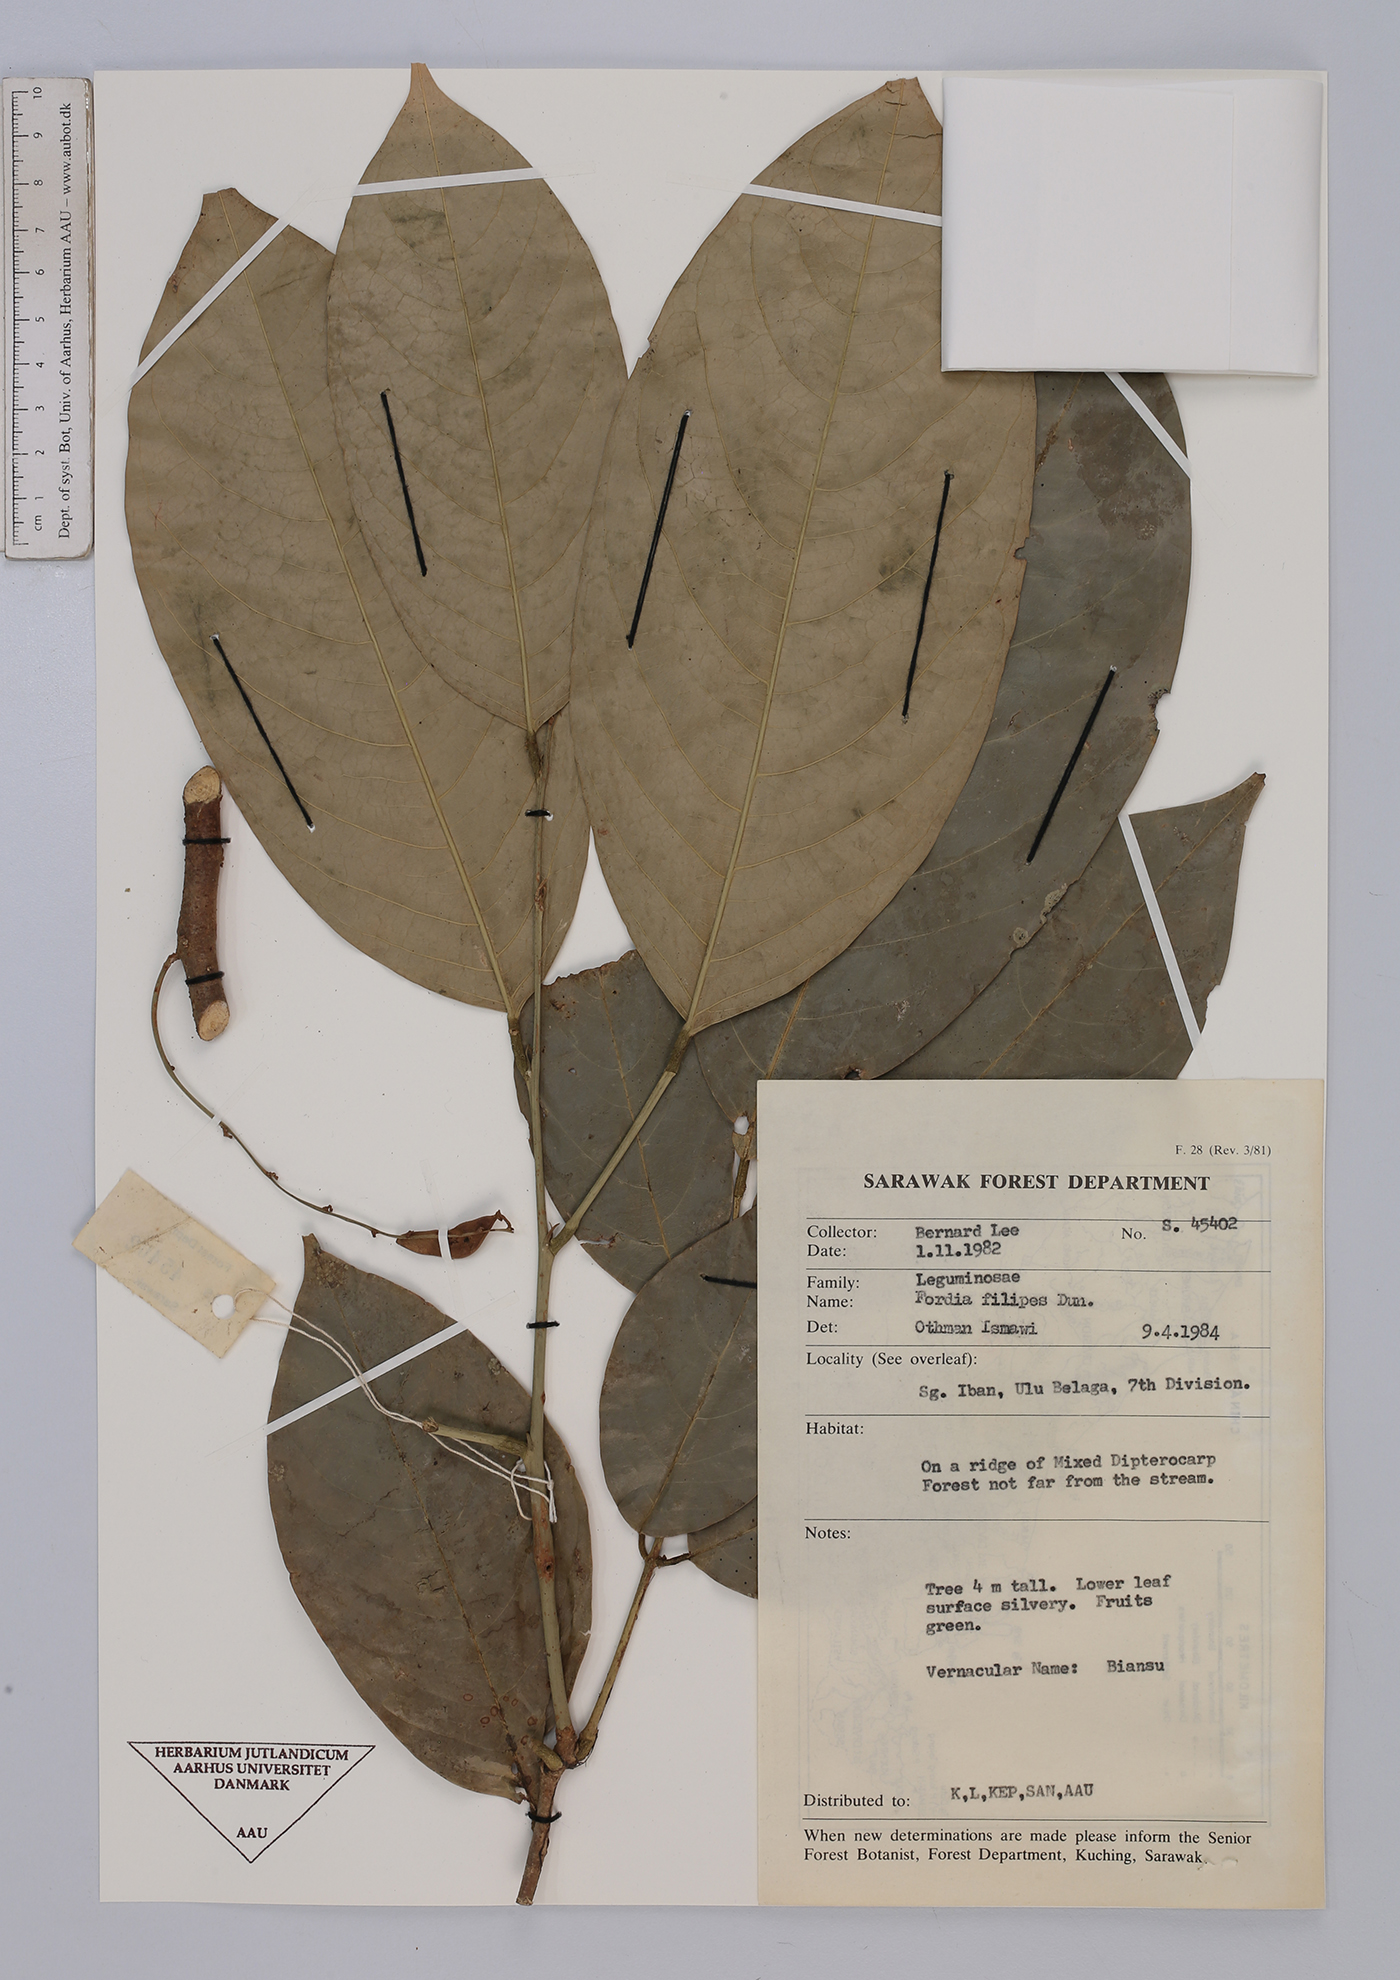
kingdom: Plantae
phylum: Tracheophyta
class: Magnoliopsida
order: Fabales
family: Fabaceae
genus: Fordia
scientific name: Fordia splendidissima
